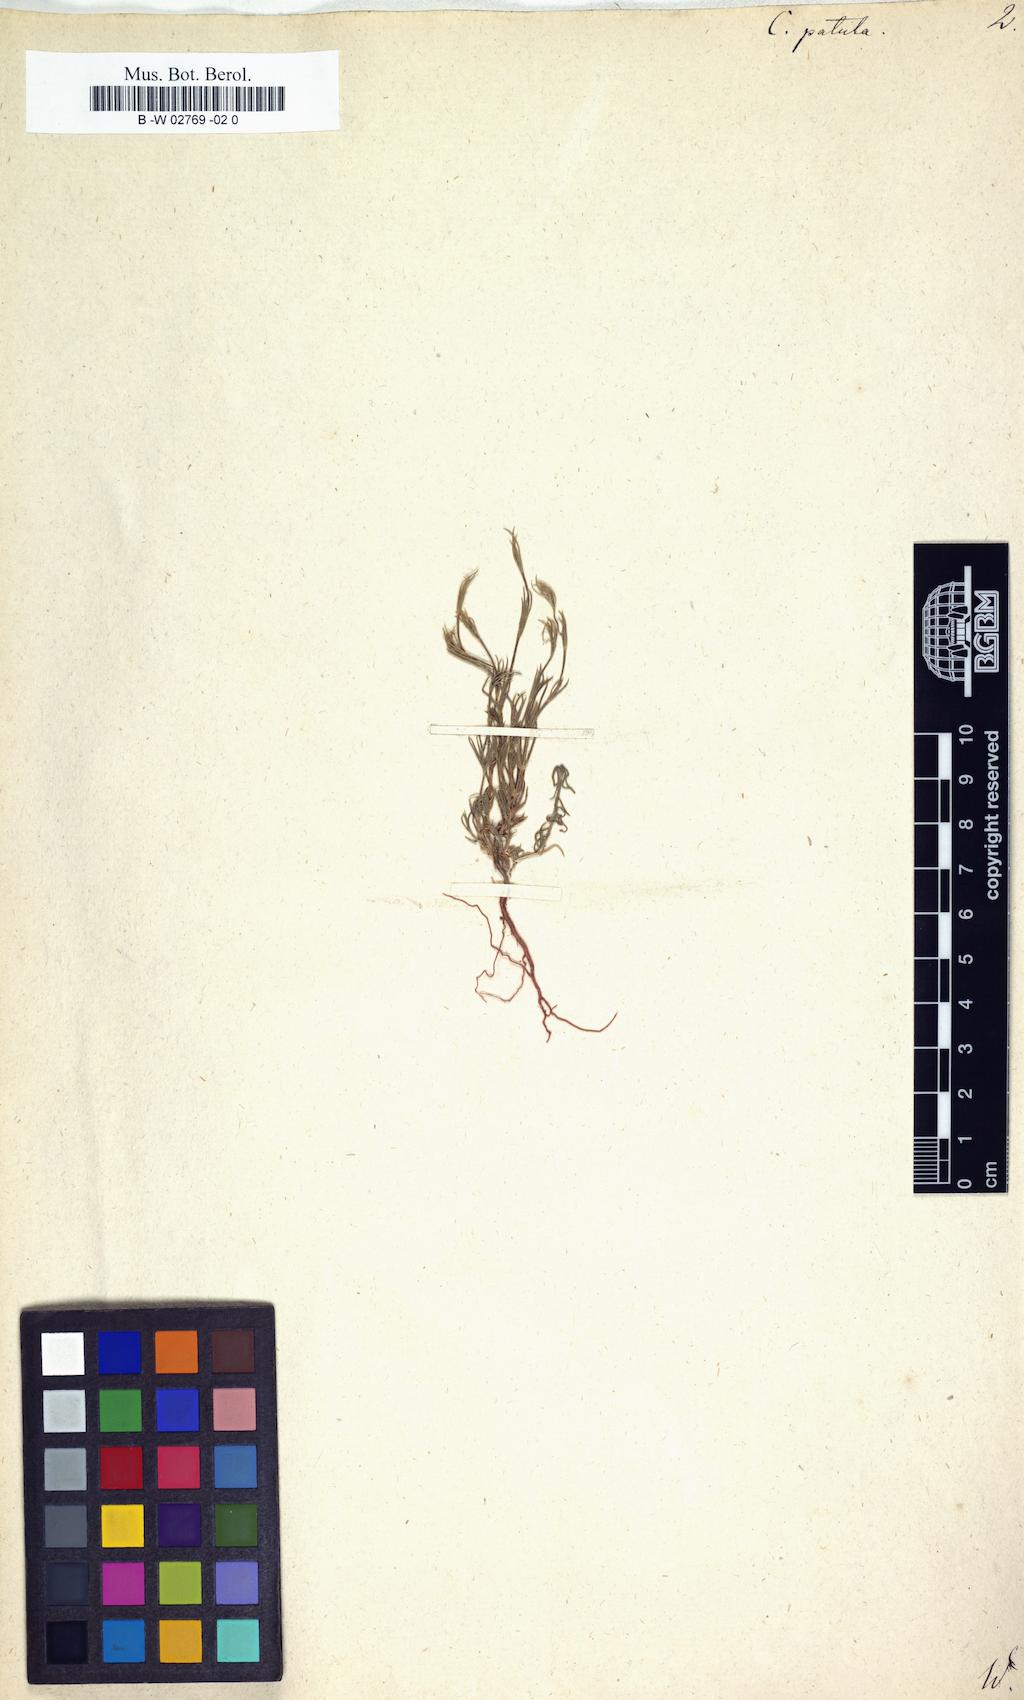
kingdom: Plantae
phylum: Tracheophyta
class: Magnoliopsida
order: Gentianales
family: Rubiaceae
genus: Crucianella
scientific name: Crucianella patula
